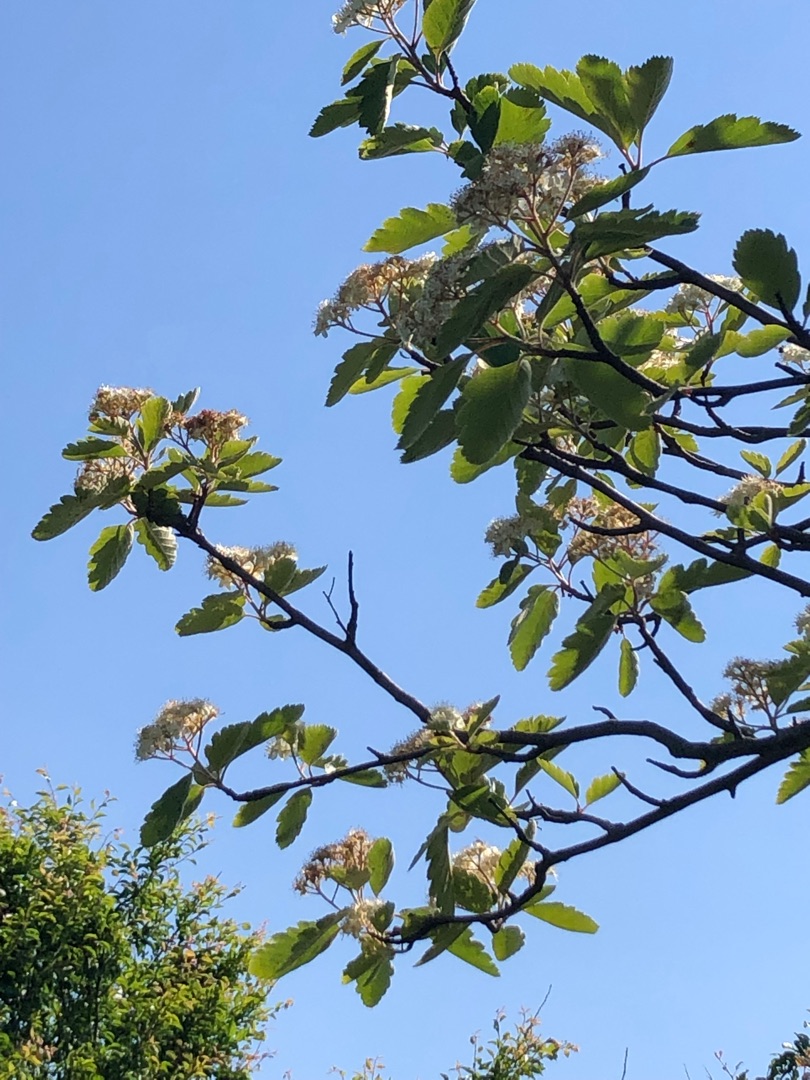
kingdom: Plantae
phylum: Tracheophyta
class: Magnoliopsida
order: Rosales
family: Rosaceae
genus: Scandosorbus
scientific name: Scandosorbus intermedia
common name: Selje-røn
